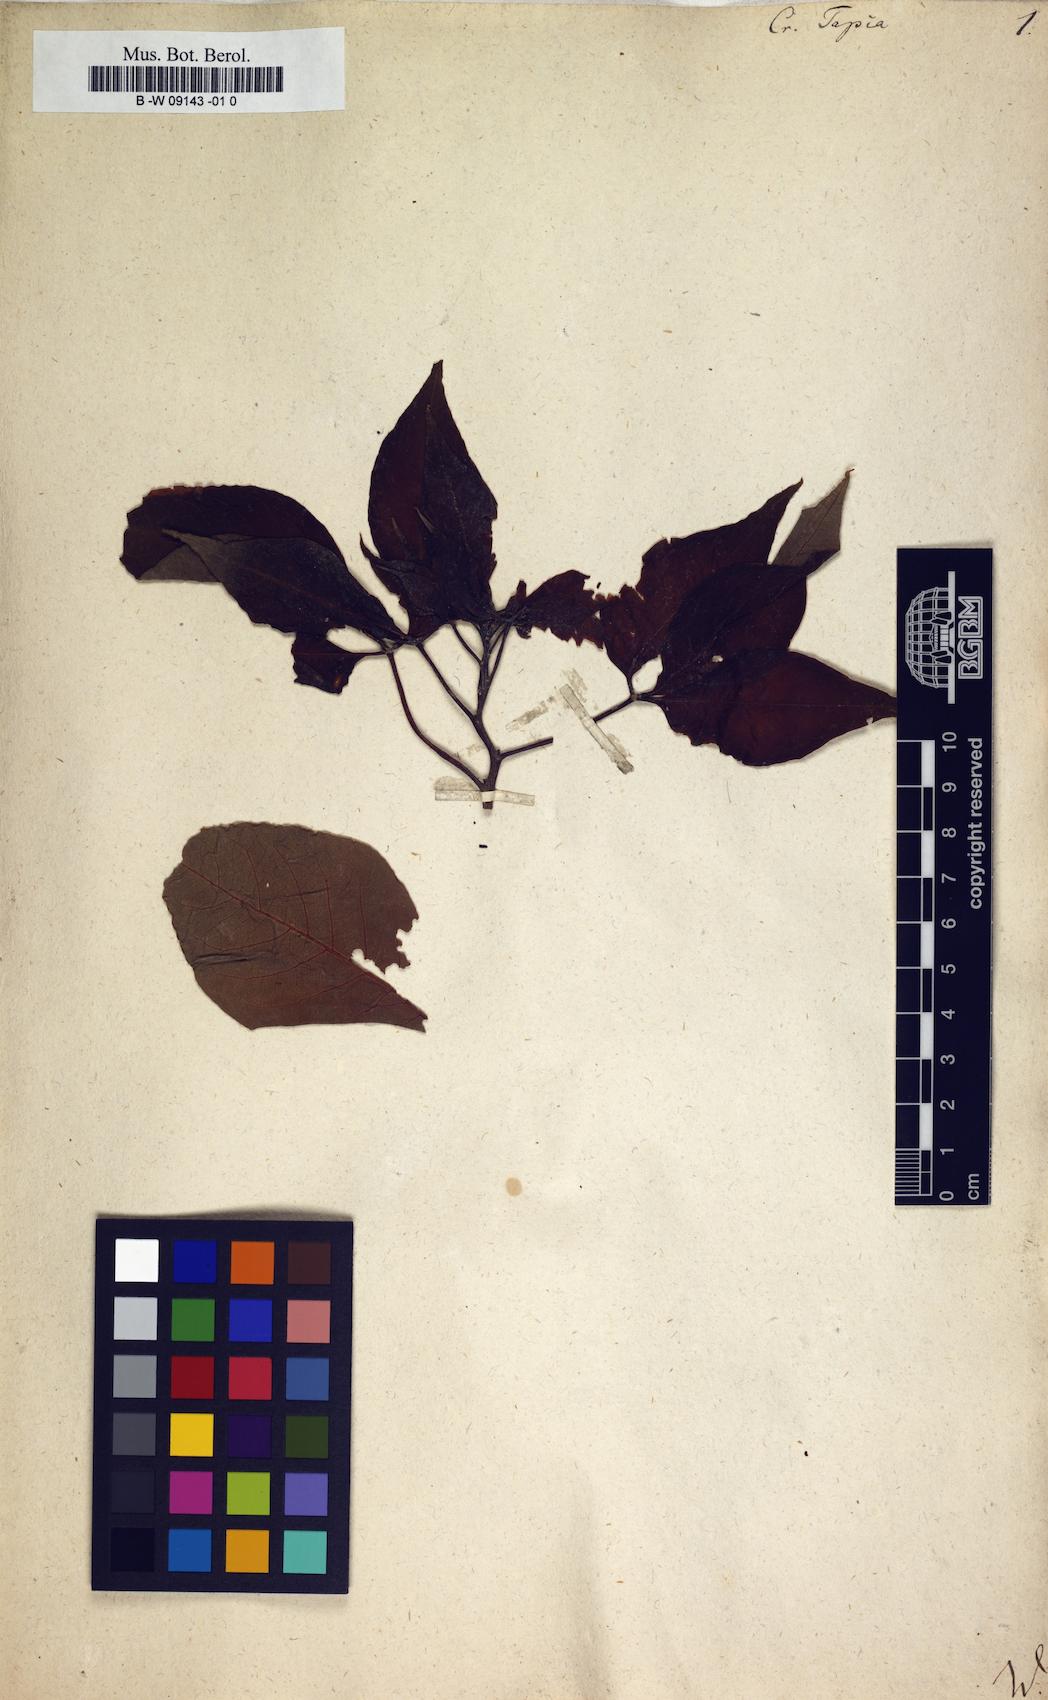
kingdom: Plantae
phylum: Tracheophyta
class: Magnoliopsida
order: Brassicales
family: Capparaceae
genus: Crateva
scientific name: Crateva tapia
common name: Garlic-pear
